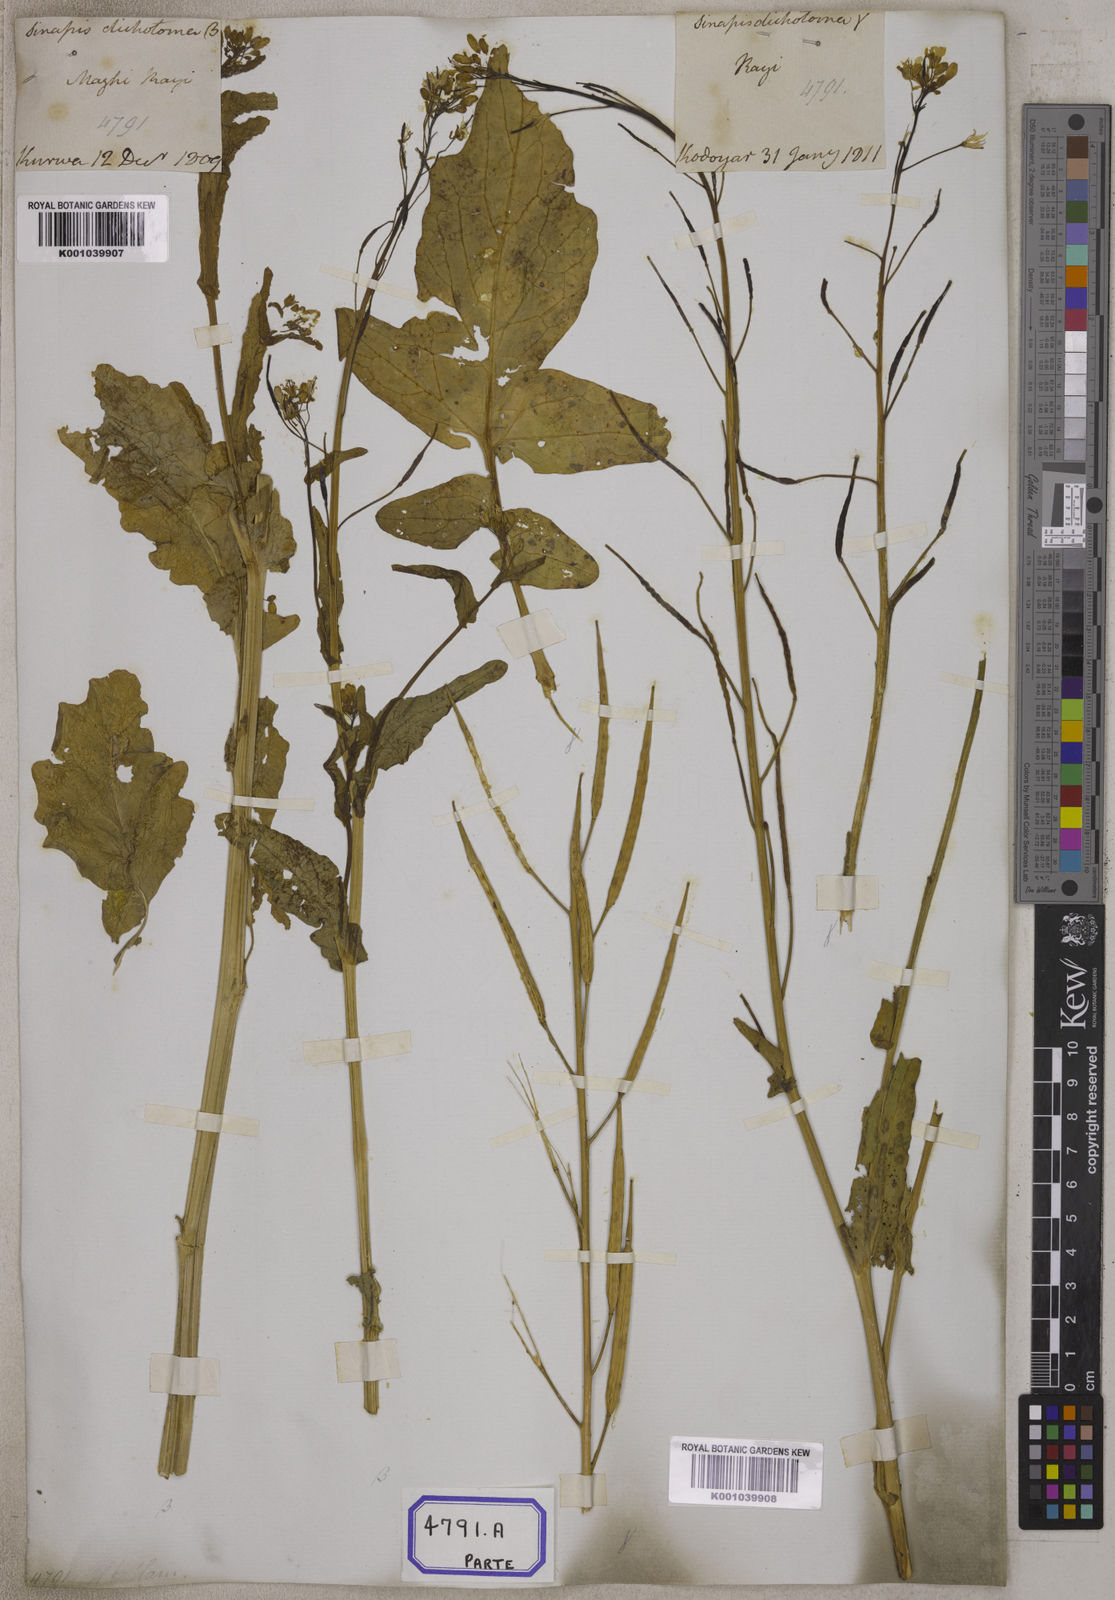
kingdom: Plantae
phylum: Tracheophyta
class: Magnoliopsida
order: Brassicales
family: Brassicaceae
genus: Brassica
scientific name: Brassica rapa
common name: Field mustard
